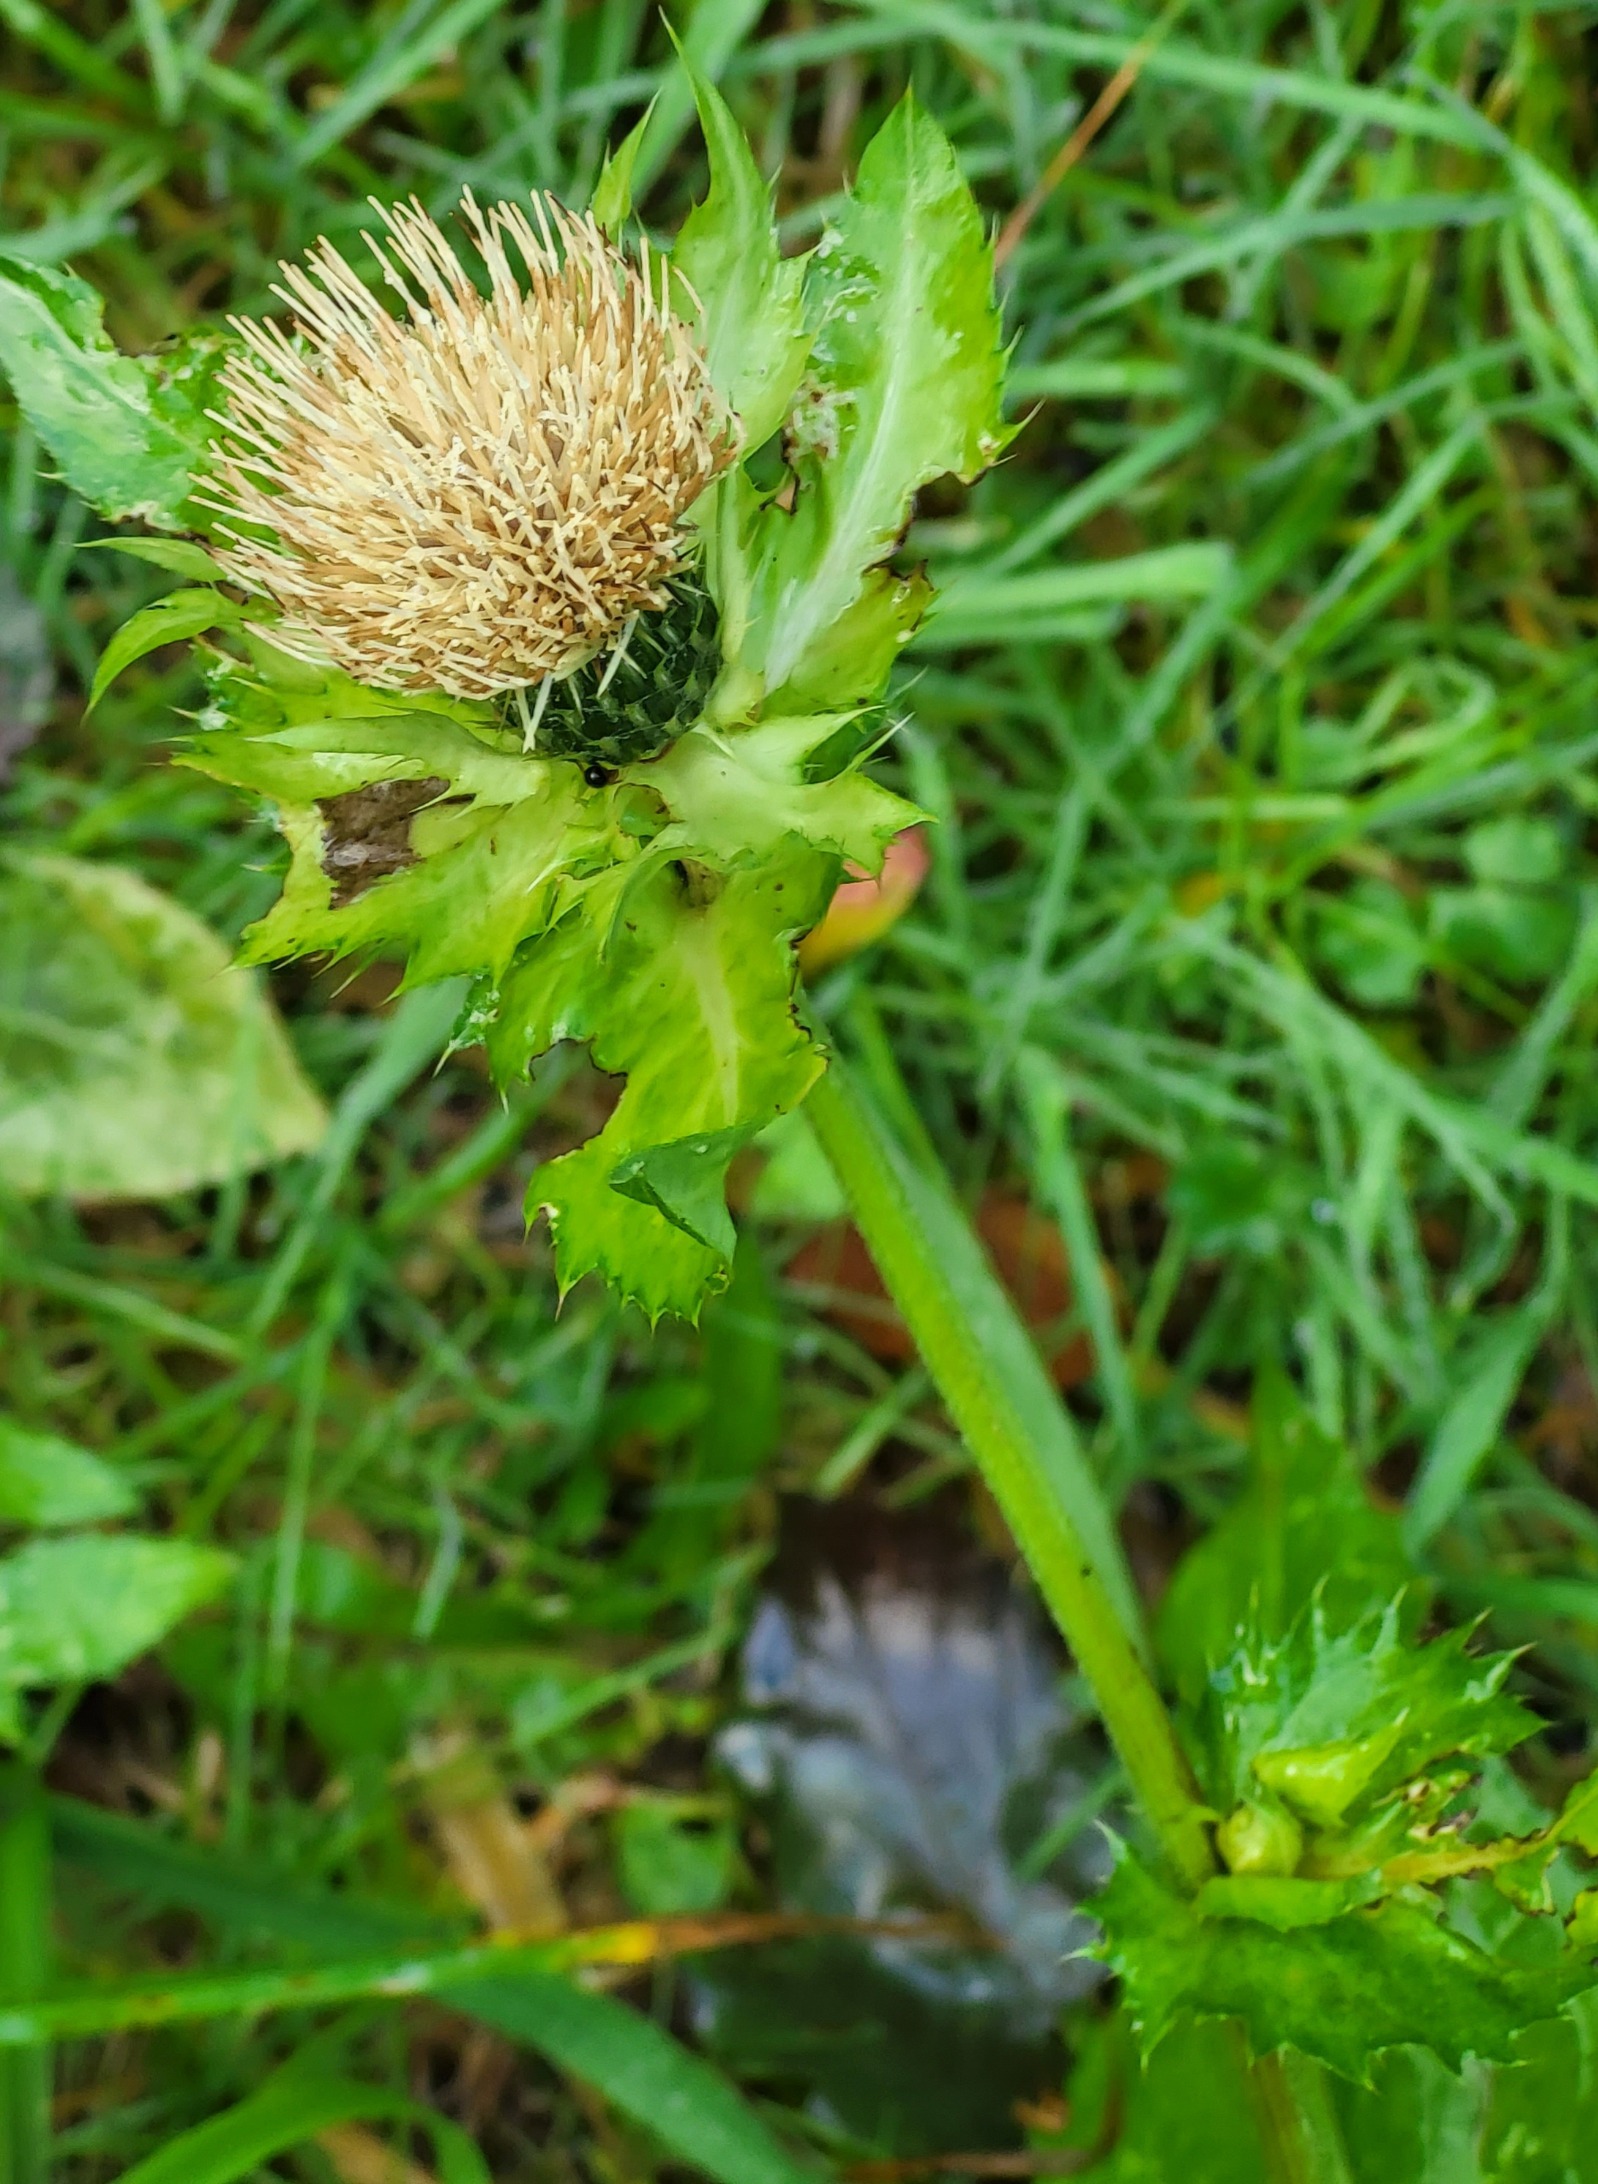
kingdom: Plantae
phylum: Tracheophyta
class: Magnoliopsida
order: Asterales
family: Asteraceae
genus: Cirsium
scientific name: Cirsium oleraceum
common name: Kål-tidsel
